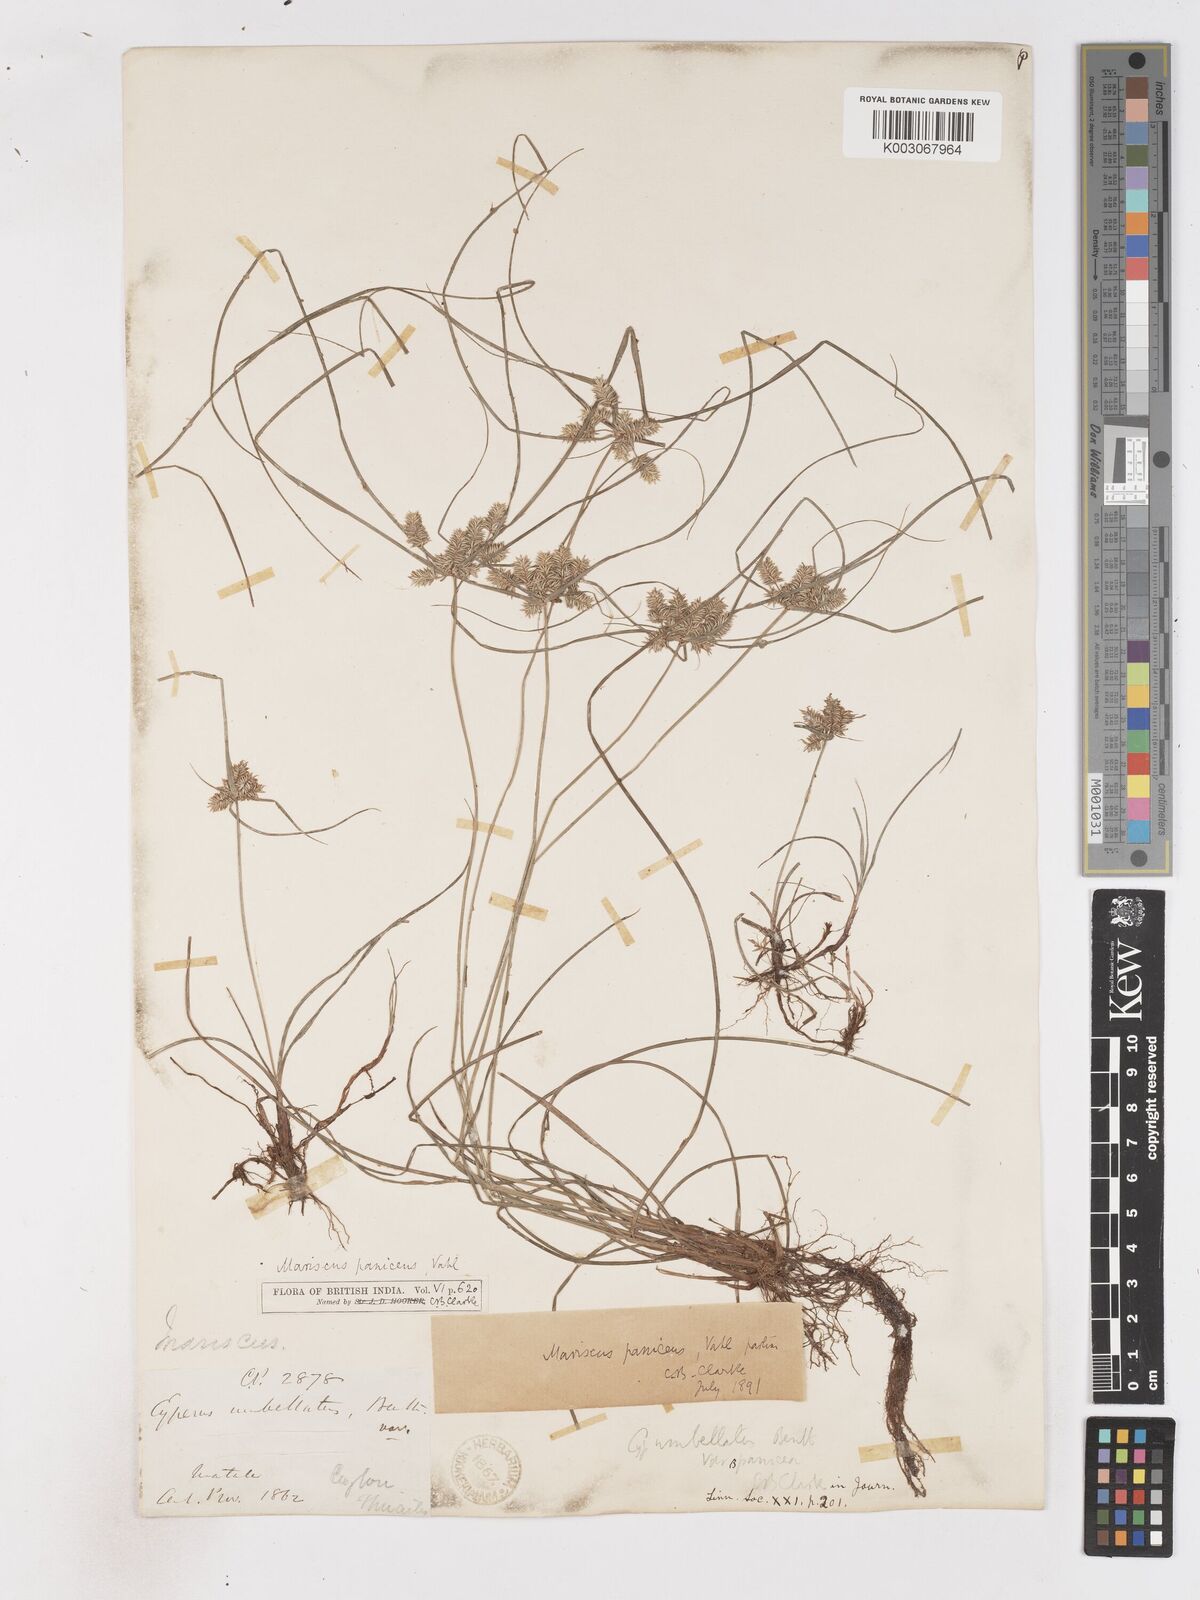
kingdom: Plantae
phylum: Tracheophyta
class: Liliopsida
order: Poales
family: Cyperaceae
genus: Cyperus
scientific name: Cyperus paniceus
